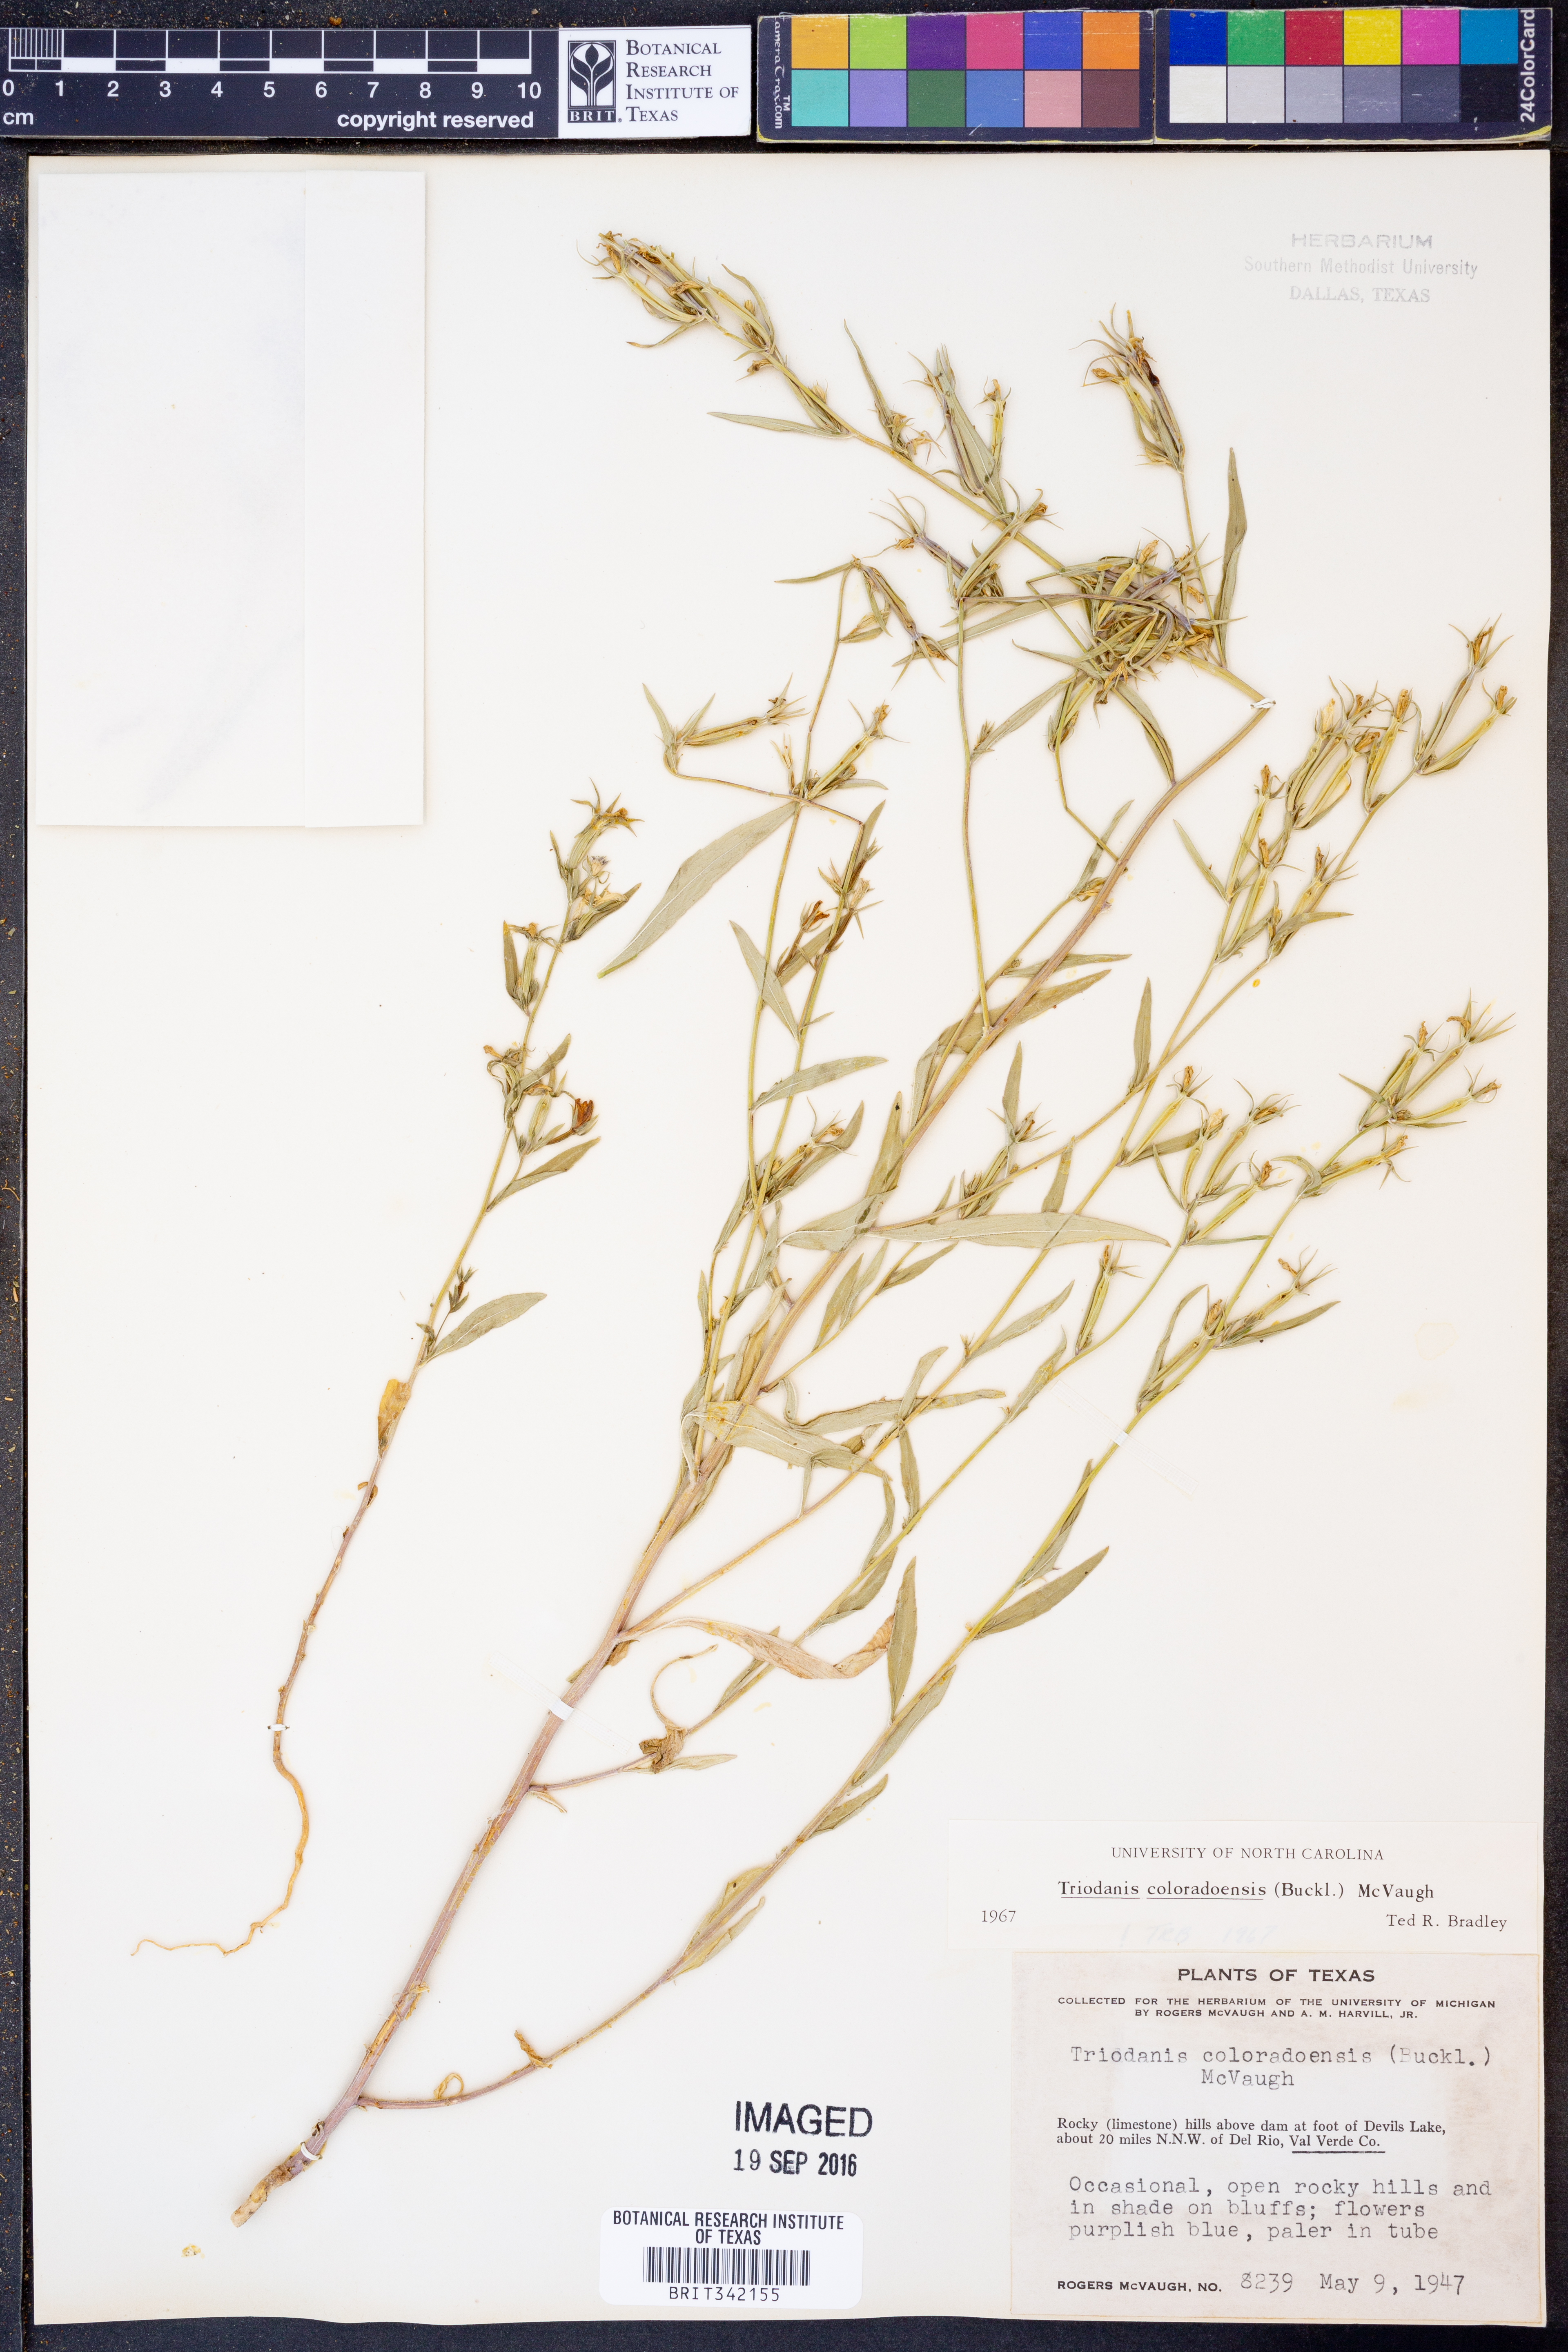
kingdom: Plantae
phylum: Tracheophyta
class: Magnoliopsida
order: Asterales
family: Campanulaceae
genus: Triodanis
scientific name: Triodanis coloradoensis
